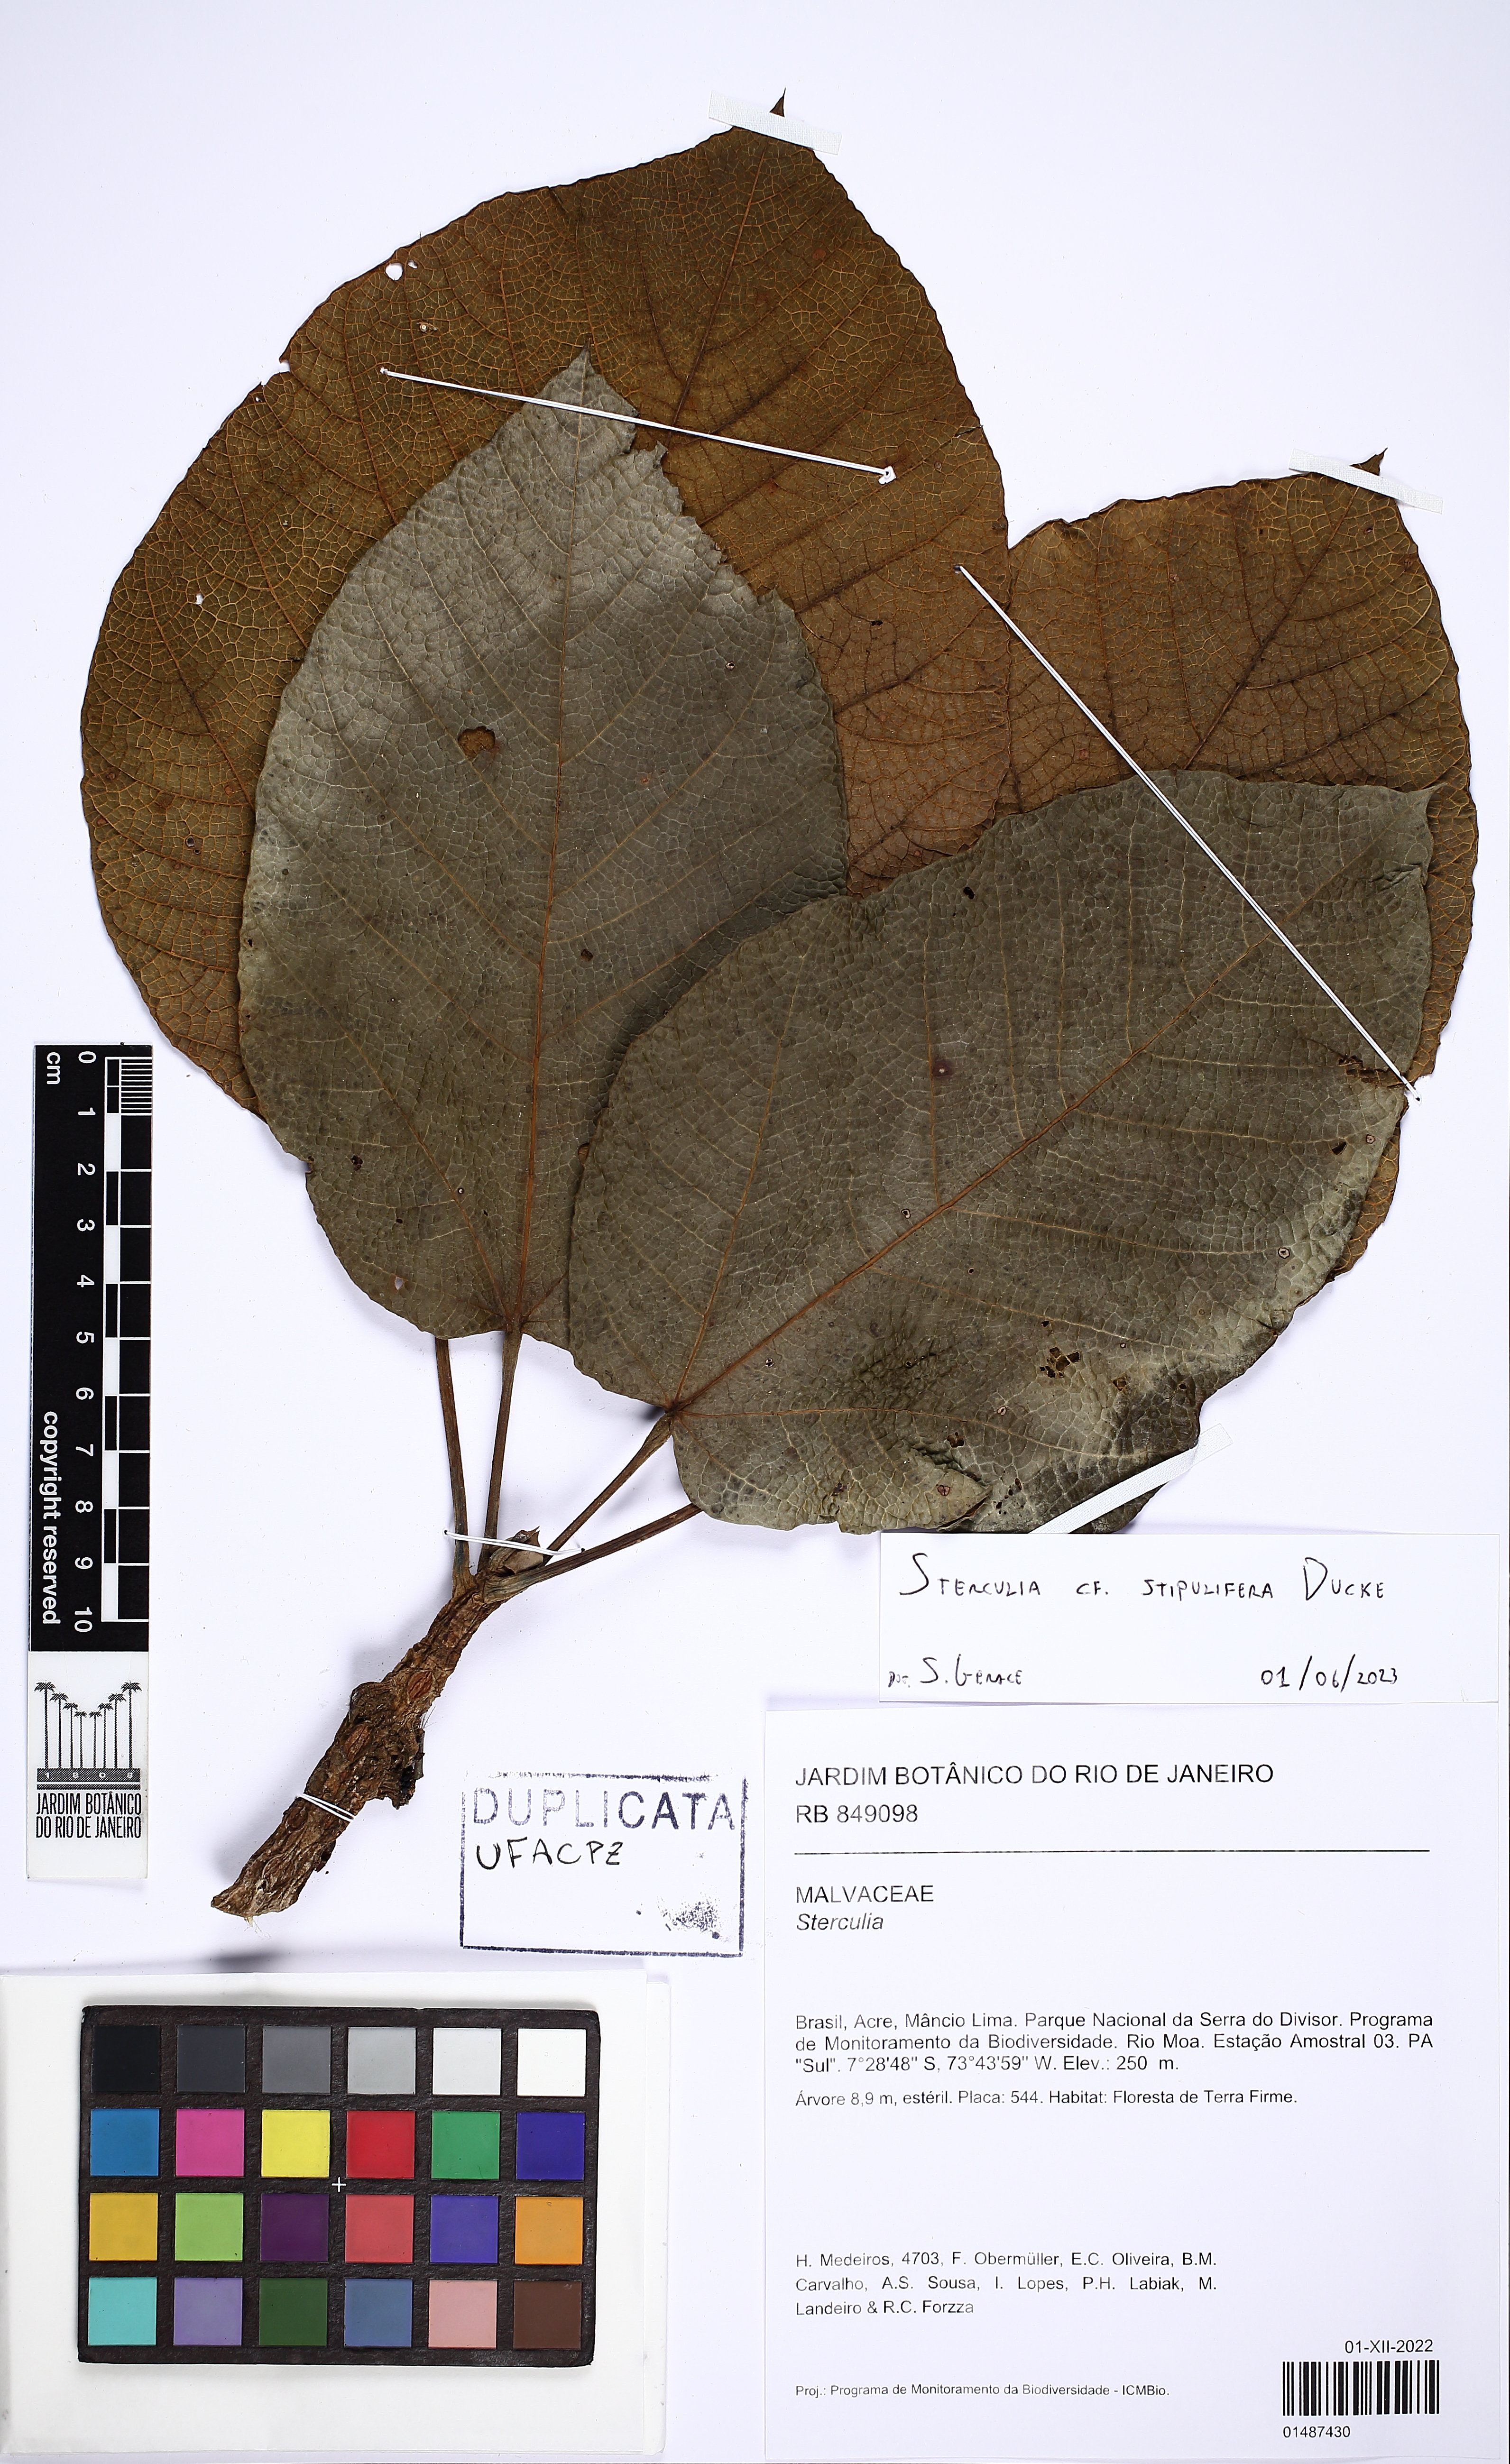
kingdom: Plantae
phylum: Tracheophyta
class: Magnoliopsida
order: Malvales
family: Malvaceae
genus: Sterculia
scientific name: Sterculia stipulifera
